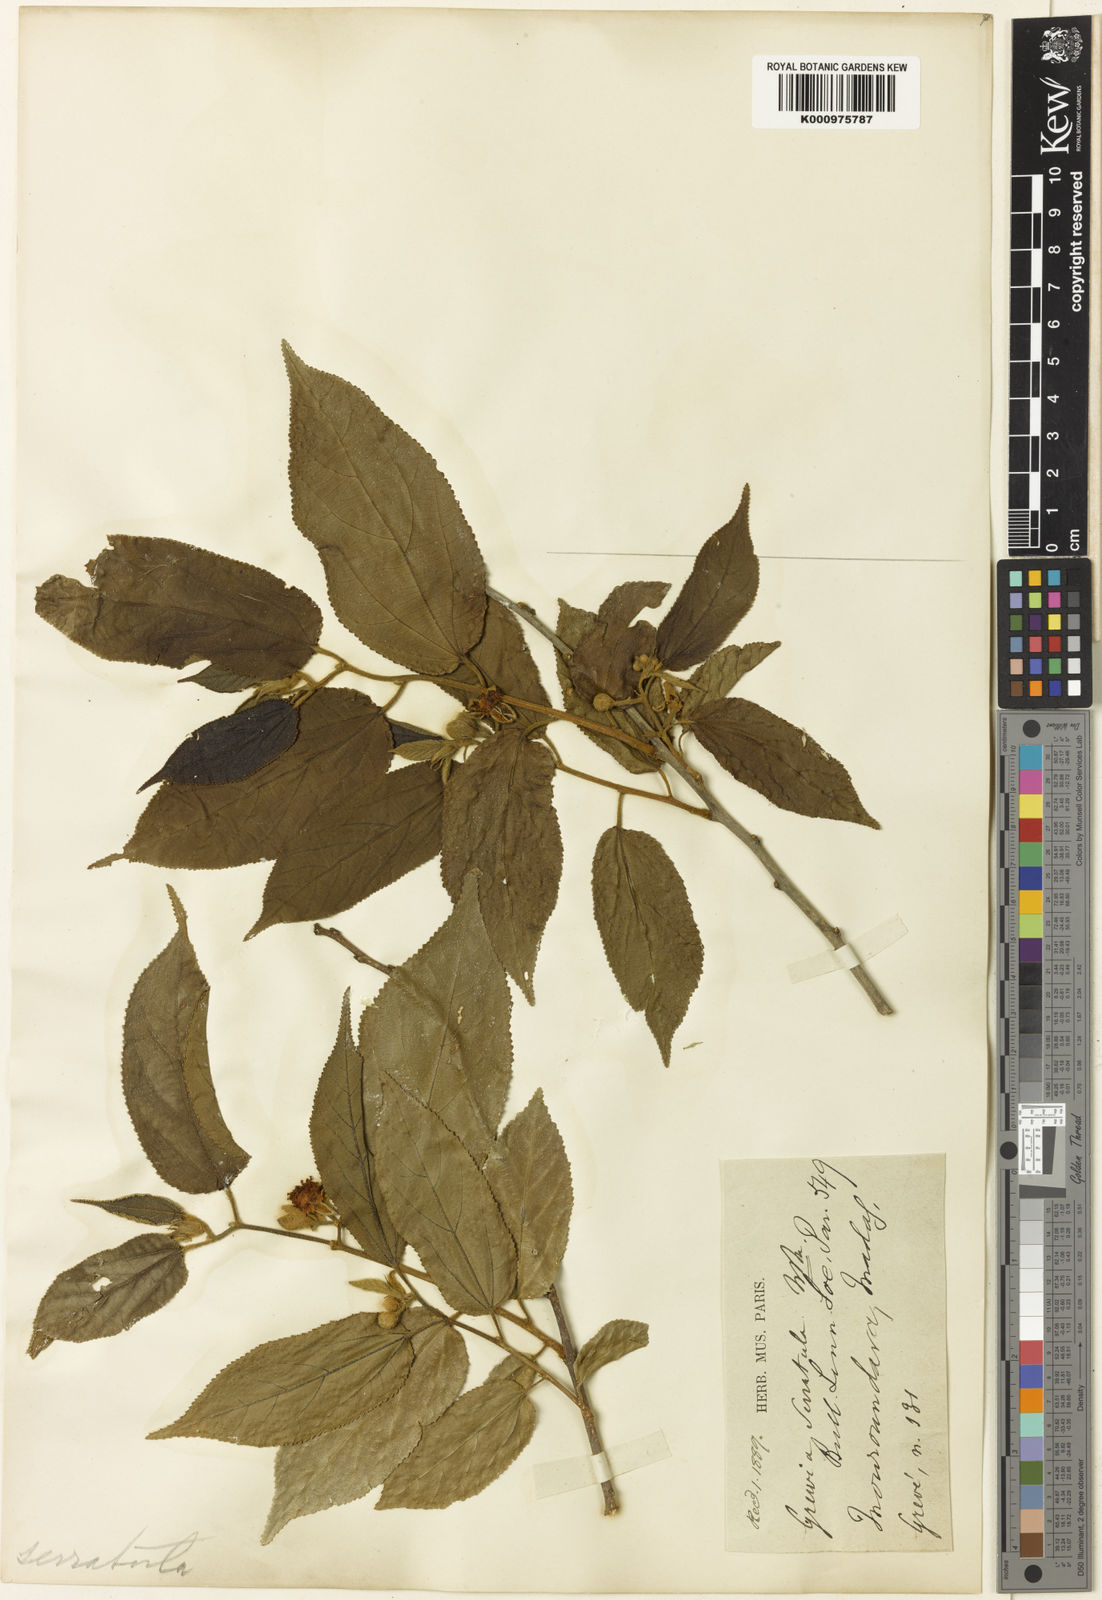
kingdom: Plantae
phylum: Tracheophyta
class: Magnoliopsida
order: Malvales
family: Malvaceae
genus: Grewia
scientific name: Grewia glandulosa
